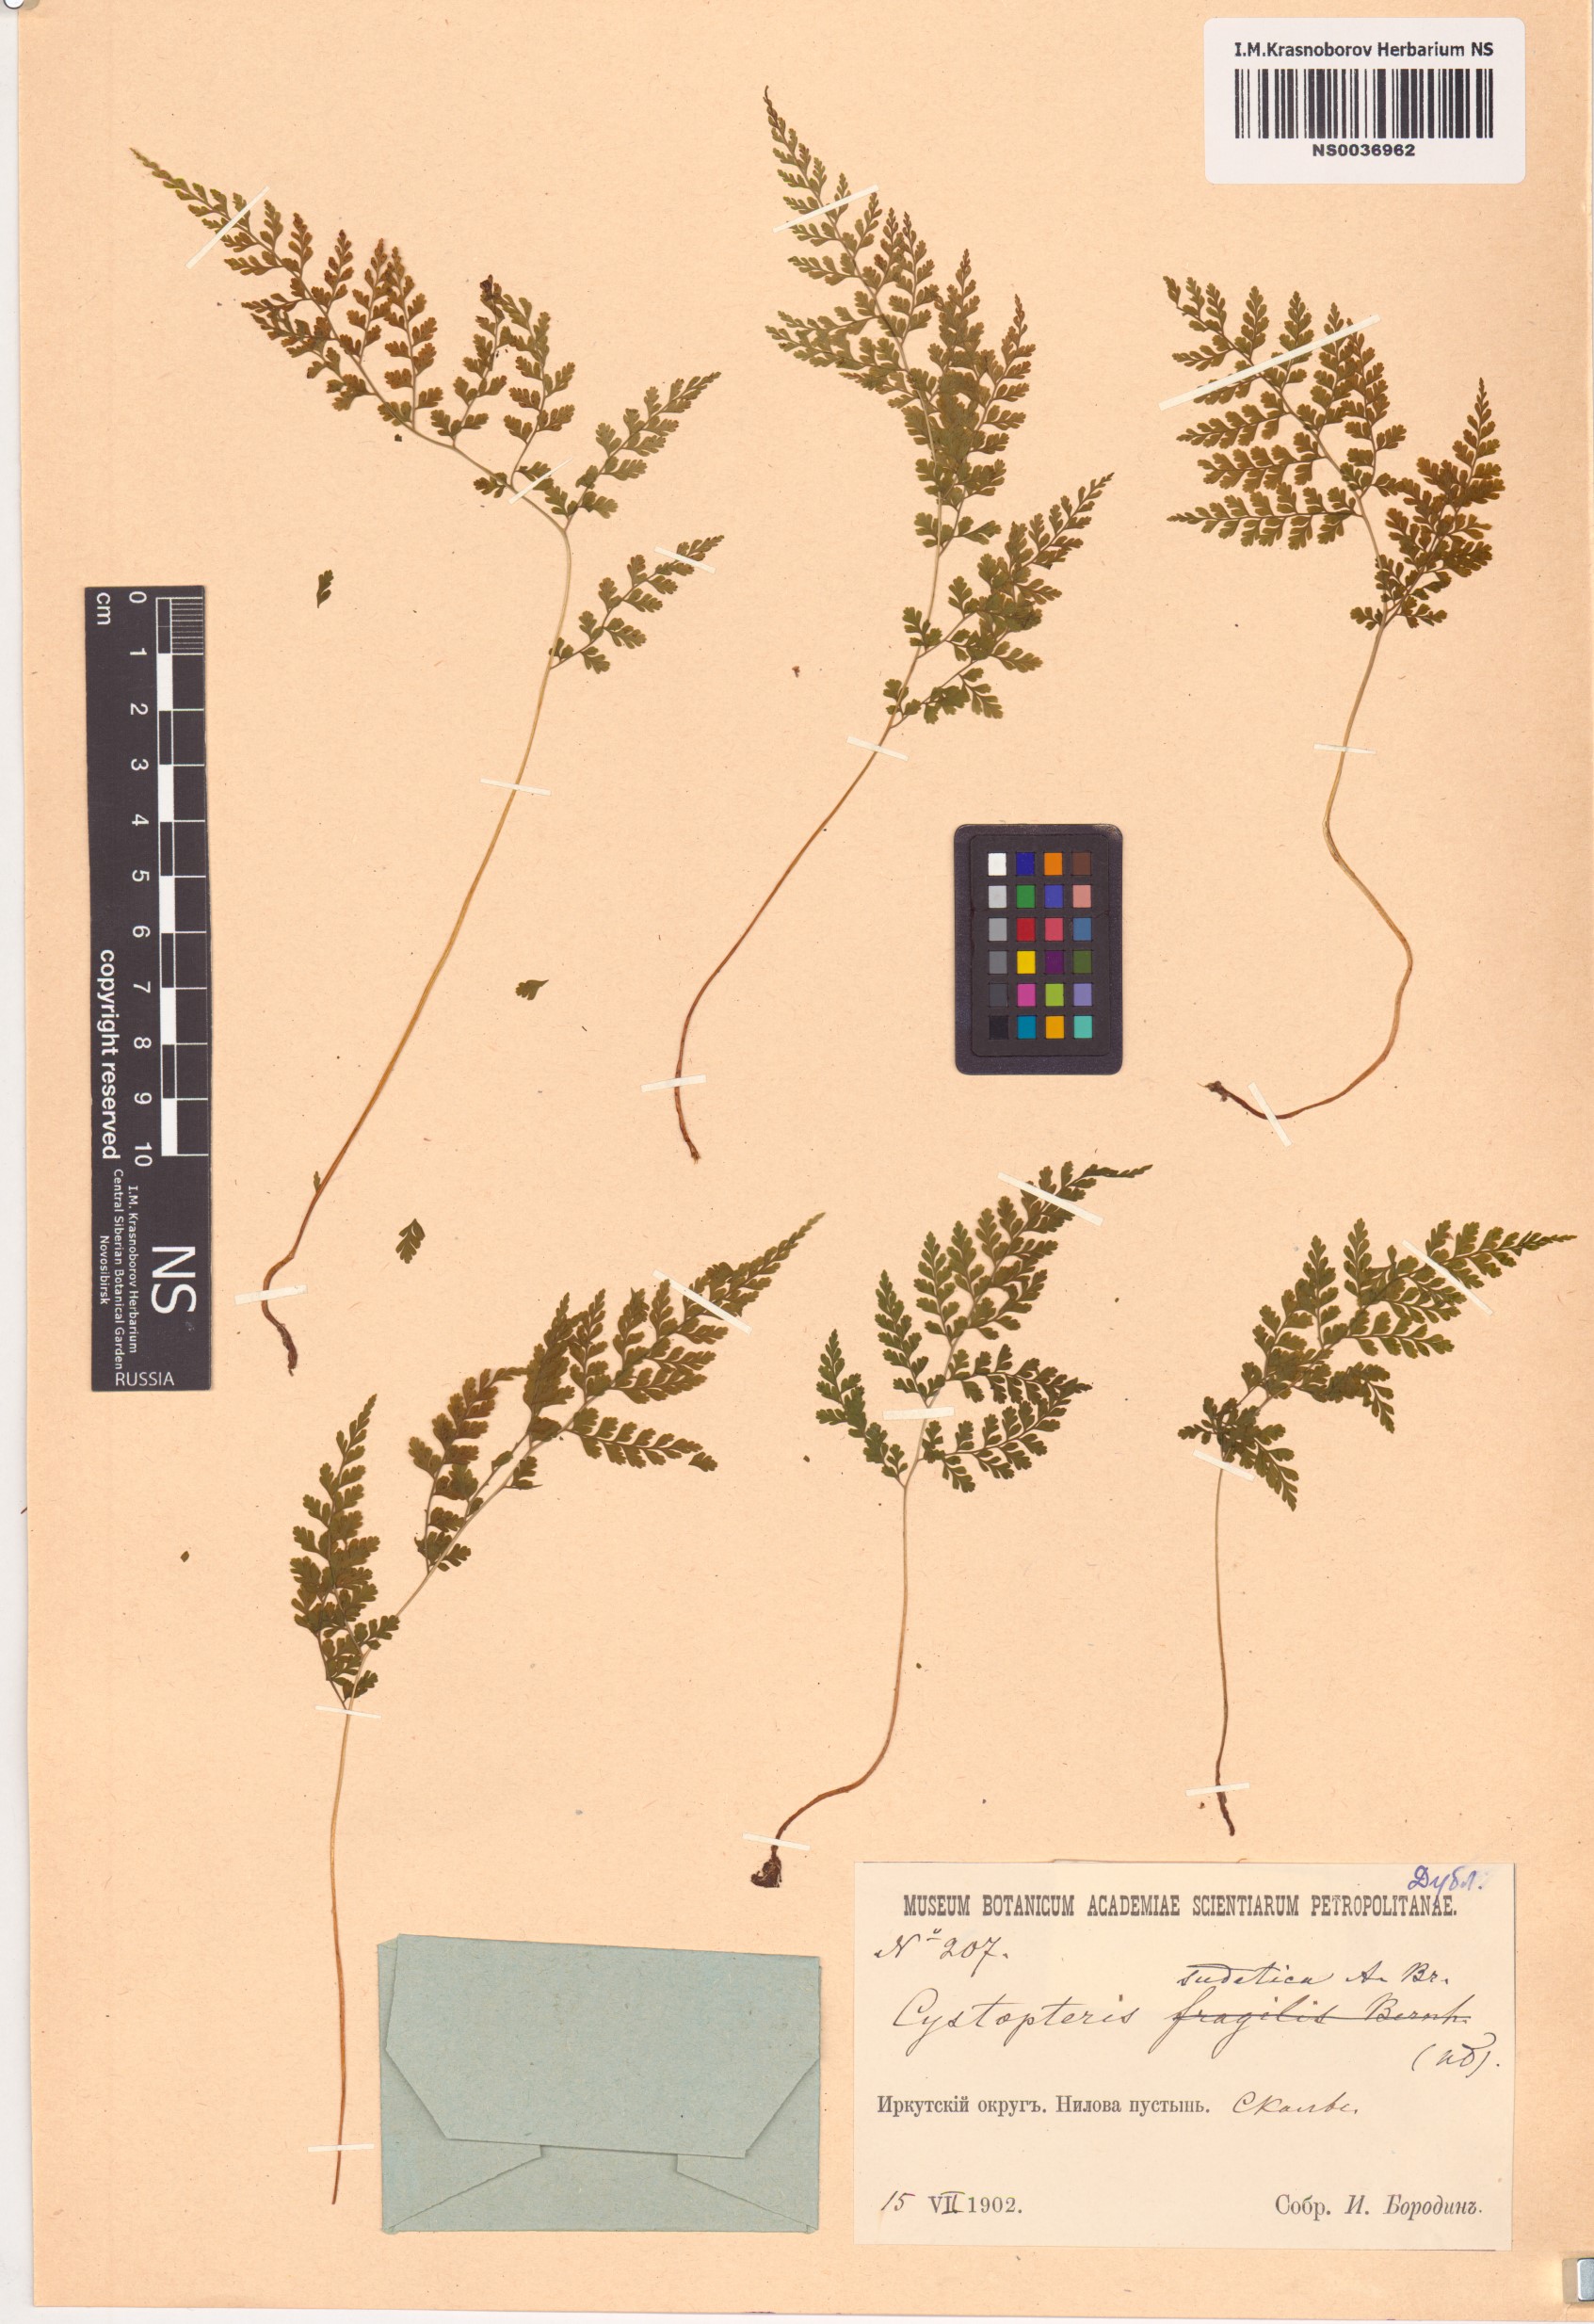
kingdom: Plantae
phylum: Tracheophyta
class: Polypodiopsida
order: Polypodiales
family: Cystopteridaceae
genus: Cystopteris
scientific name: Cystopteris sudetica
